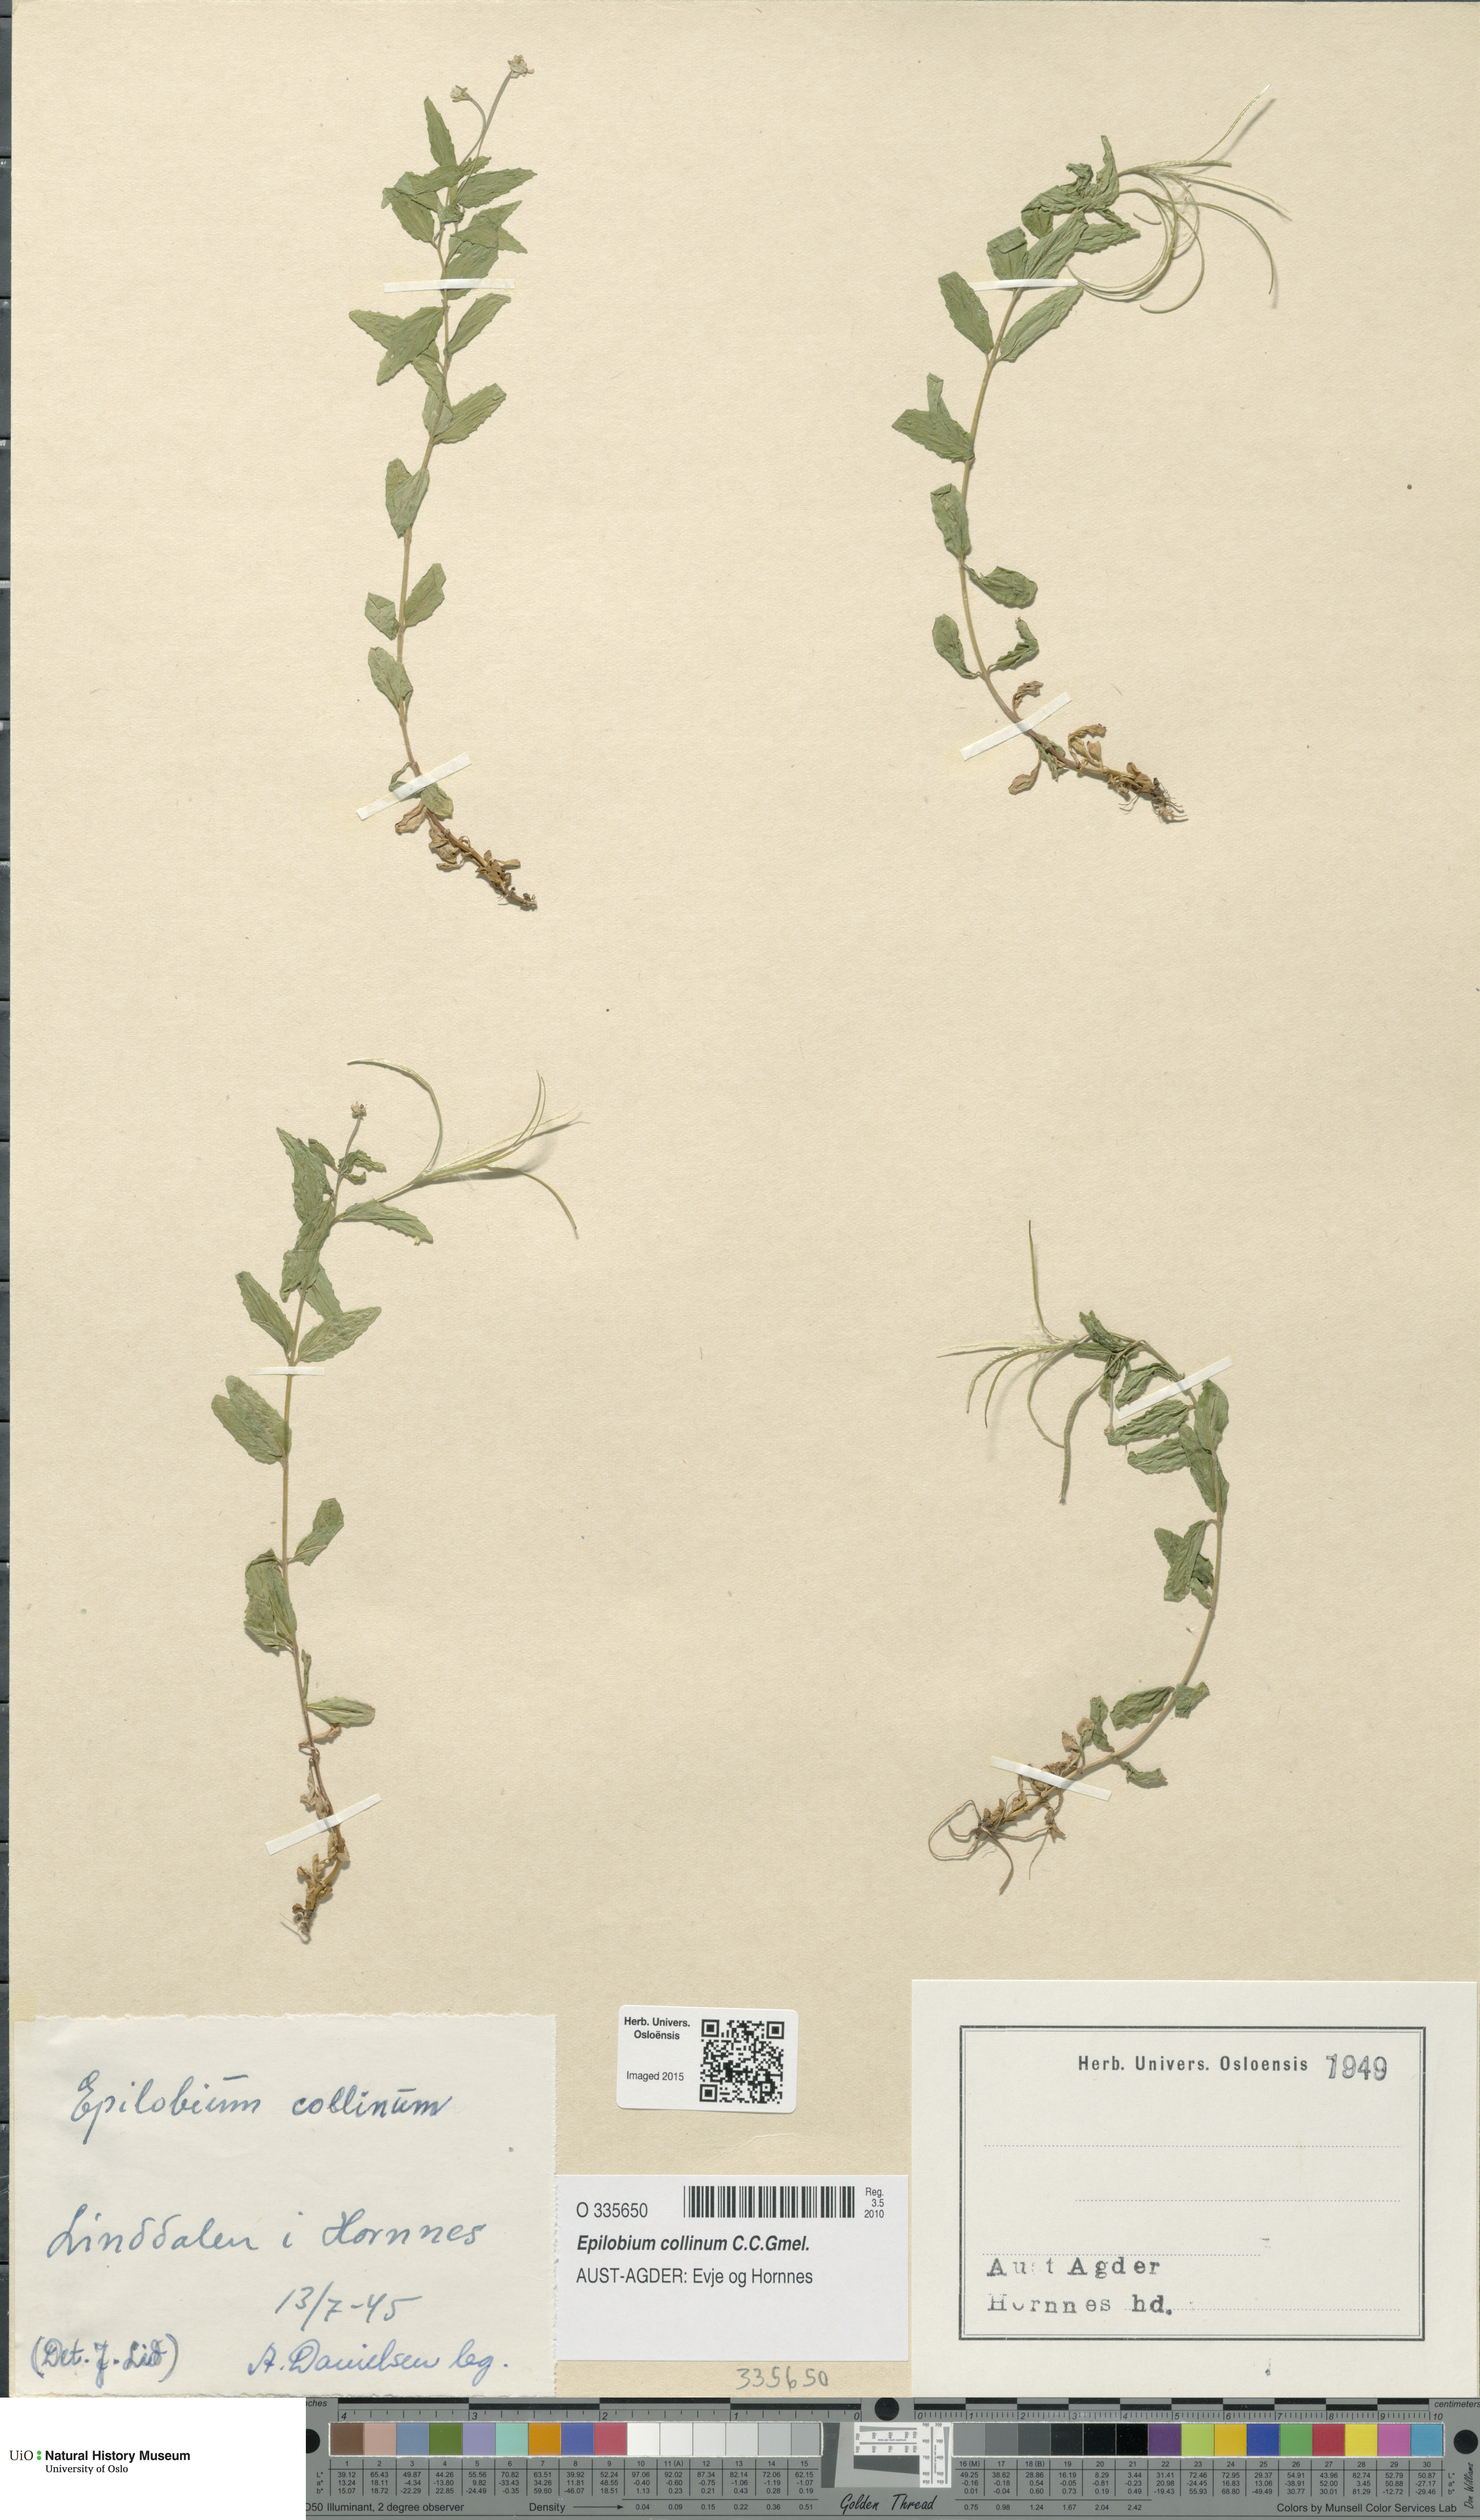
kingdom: Plantae
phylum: Tracheophyta
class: Magnoliopsida
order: Myrtales
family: Onagraceae
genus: Epilobium
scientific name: Epilobium collinum
